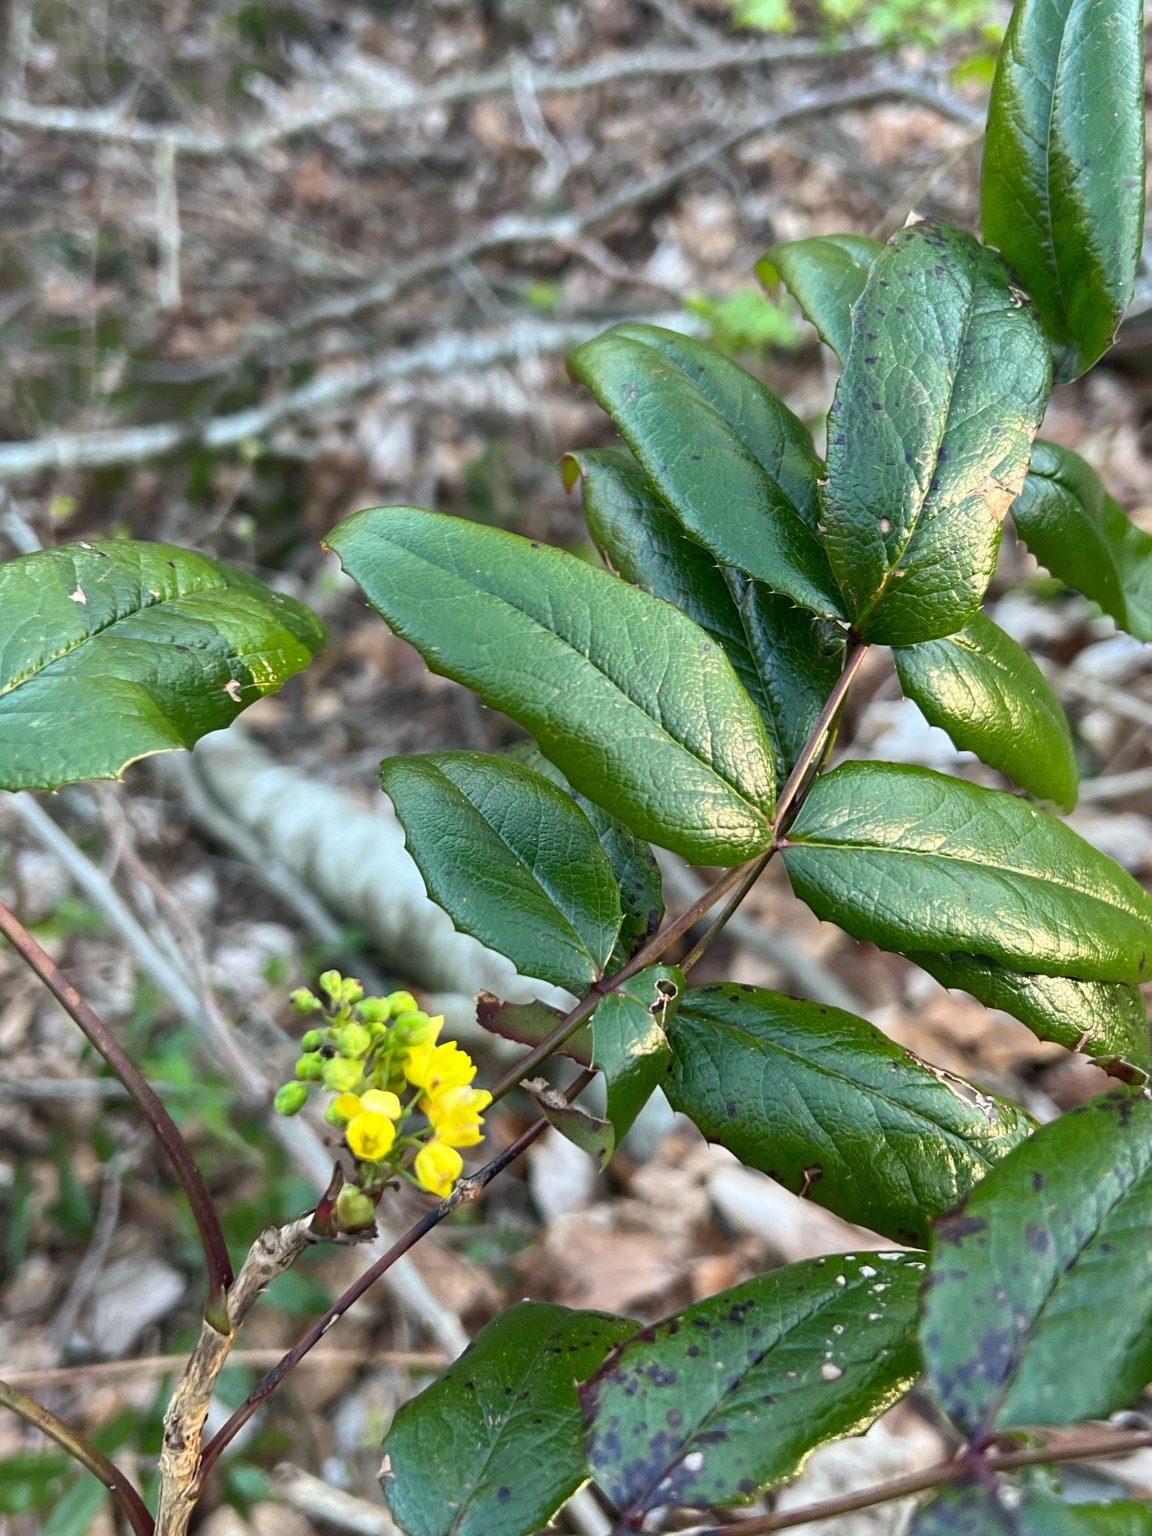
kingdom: Plantae
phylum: Tracheophyta
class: Magnoliopsida
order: Ranunculales
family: Berberidaceae
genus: Mahonia
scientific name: Mahonia aquifolium
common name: Almindelig mahonie
